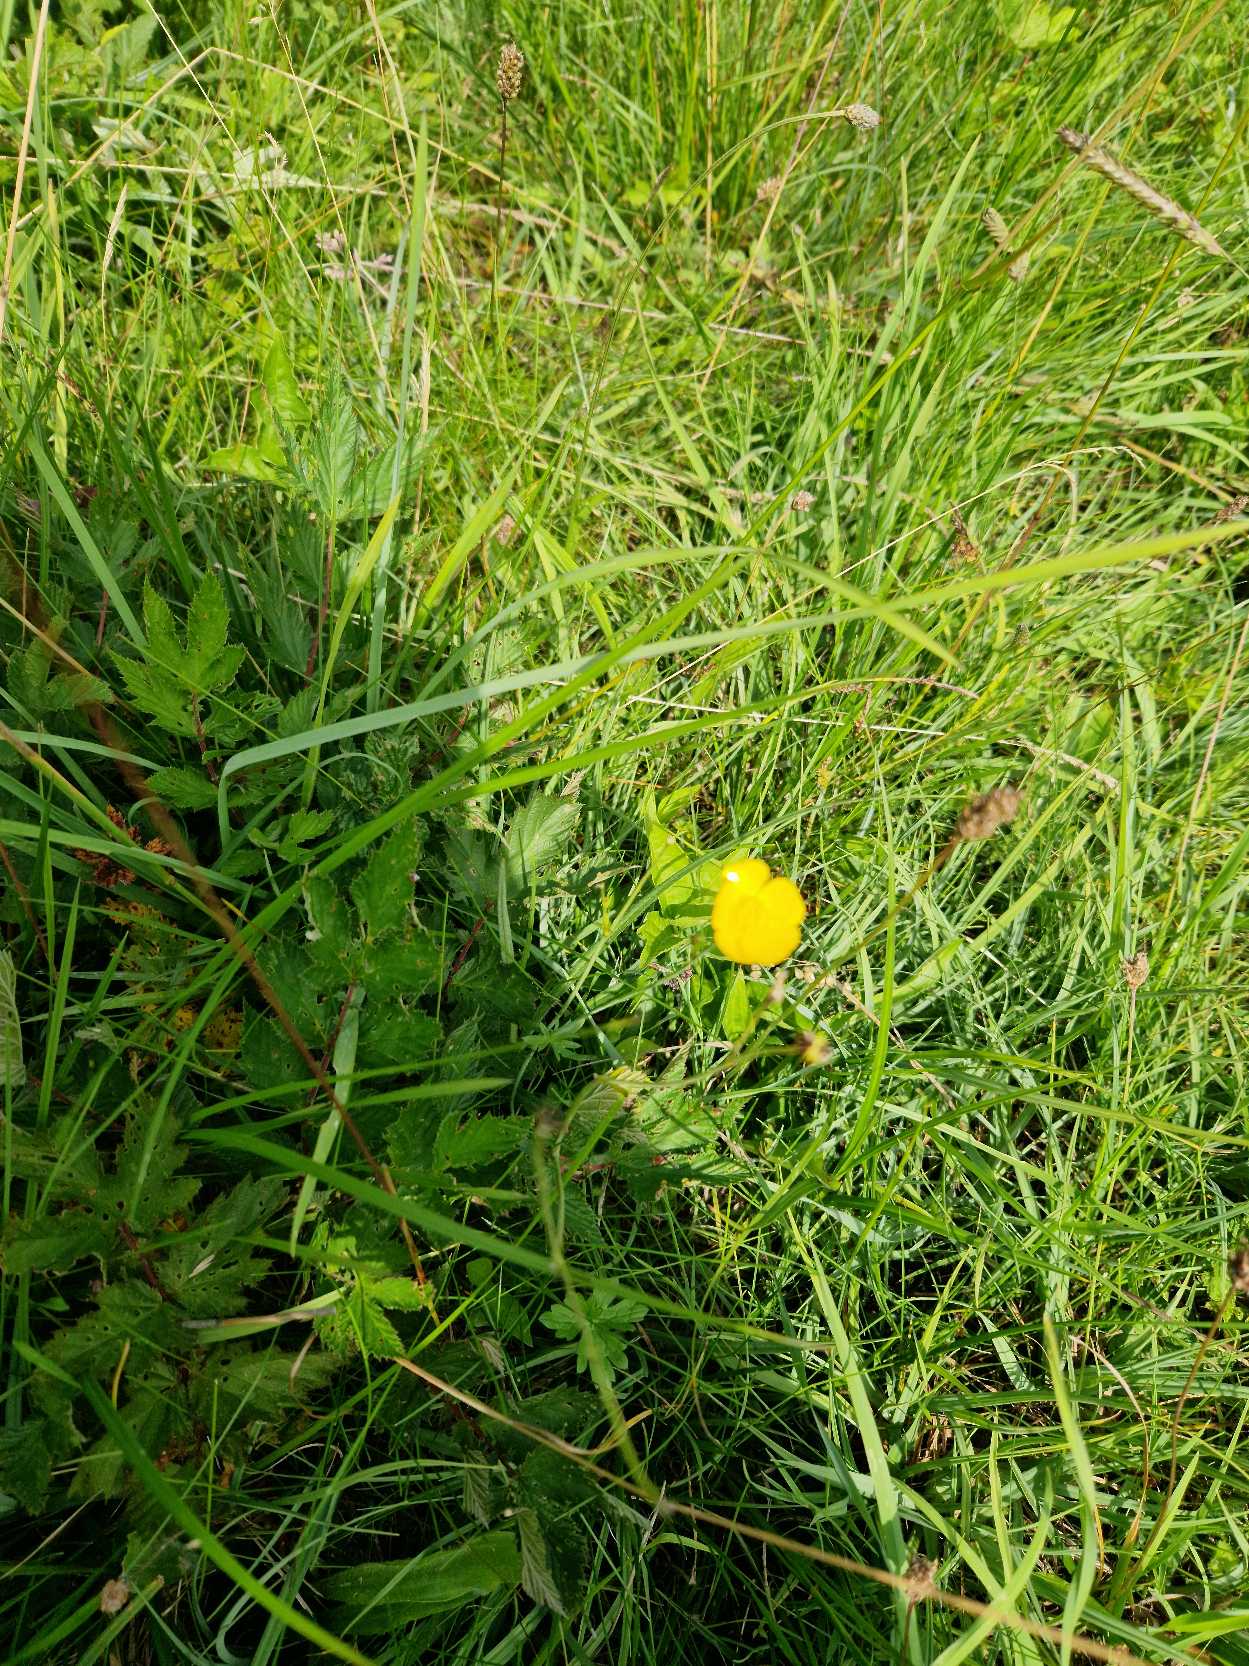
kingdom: Plantae
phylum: Tracheophyta
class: Magnoliopsida
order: Ranunculales
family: Ranunculaceae
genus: Ranunculus
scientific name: Ranunculus
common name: Ranunkelslægten
